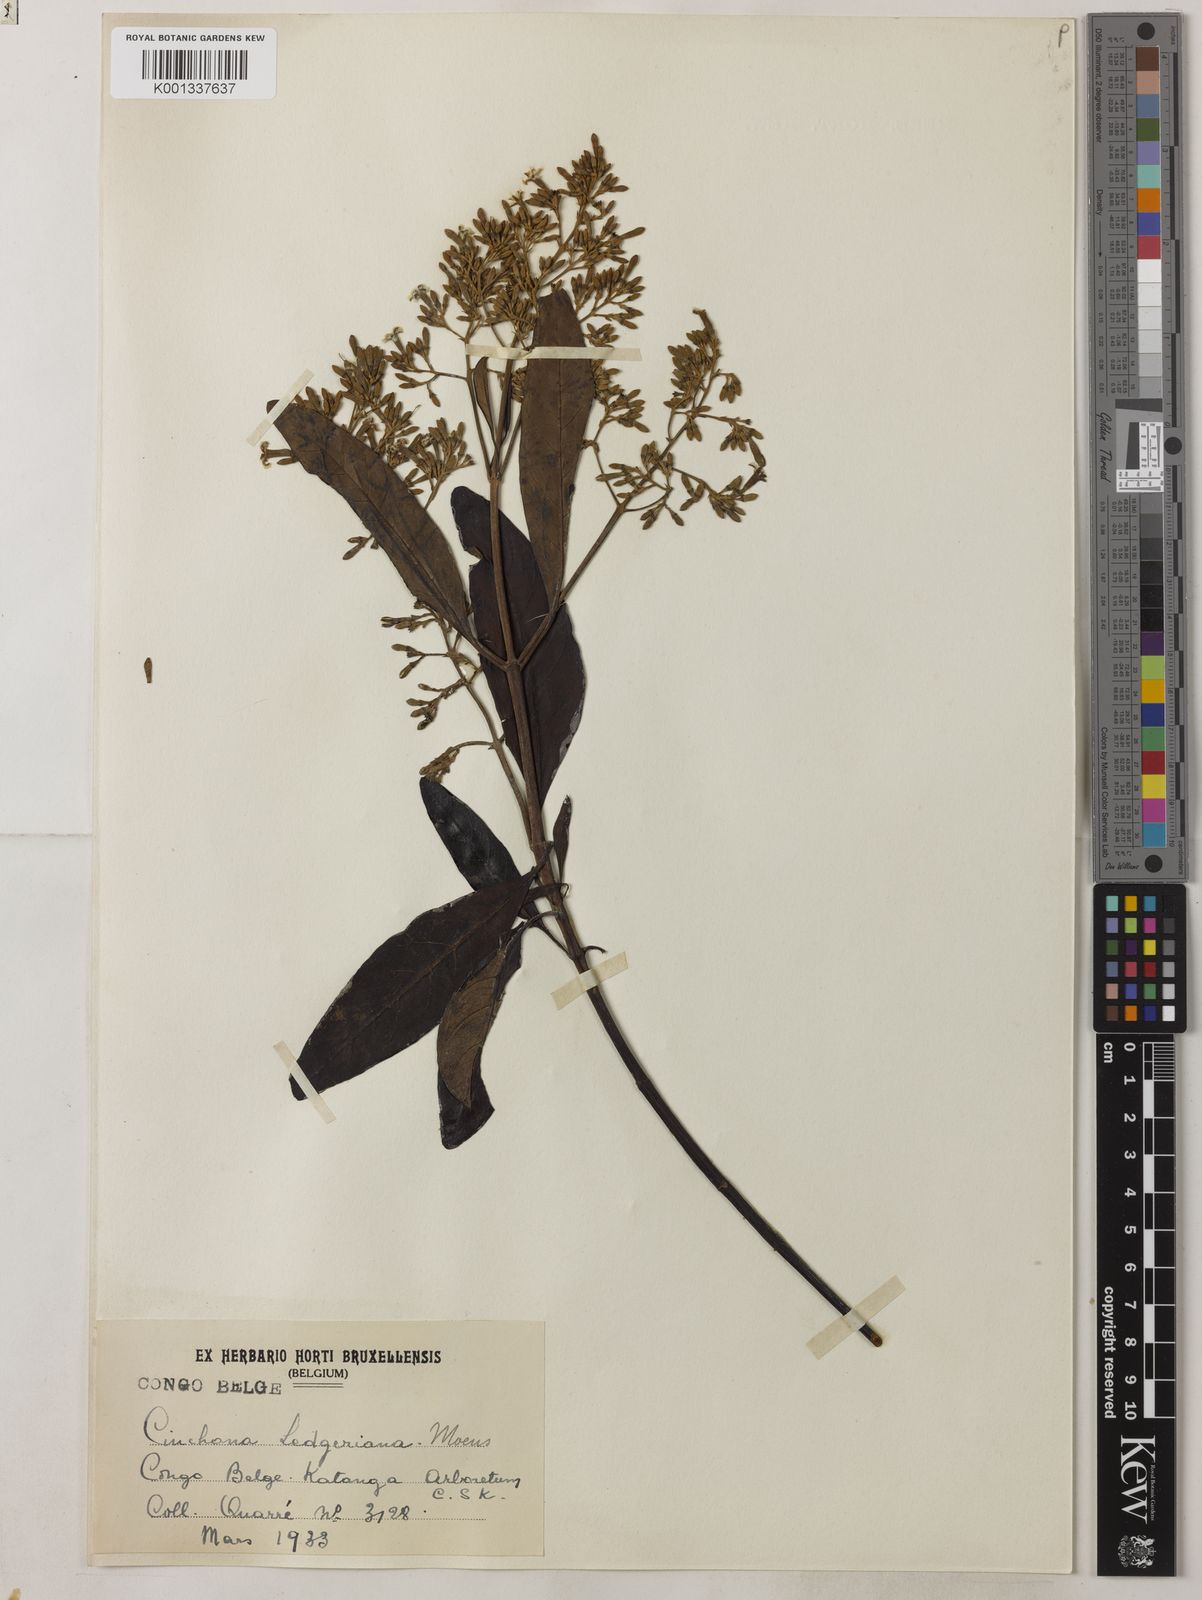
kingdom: Plantae
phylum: Tracheophyta
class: Magnoliopsida
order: Gentianales
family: Rubiaceae
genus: Cinchona
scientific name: Cinchona calisaya
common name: Ledgerbark
